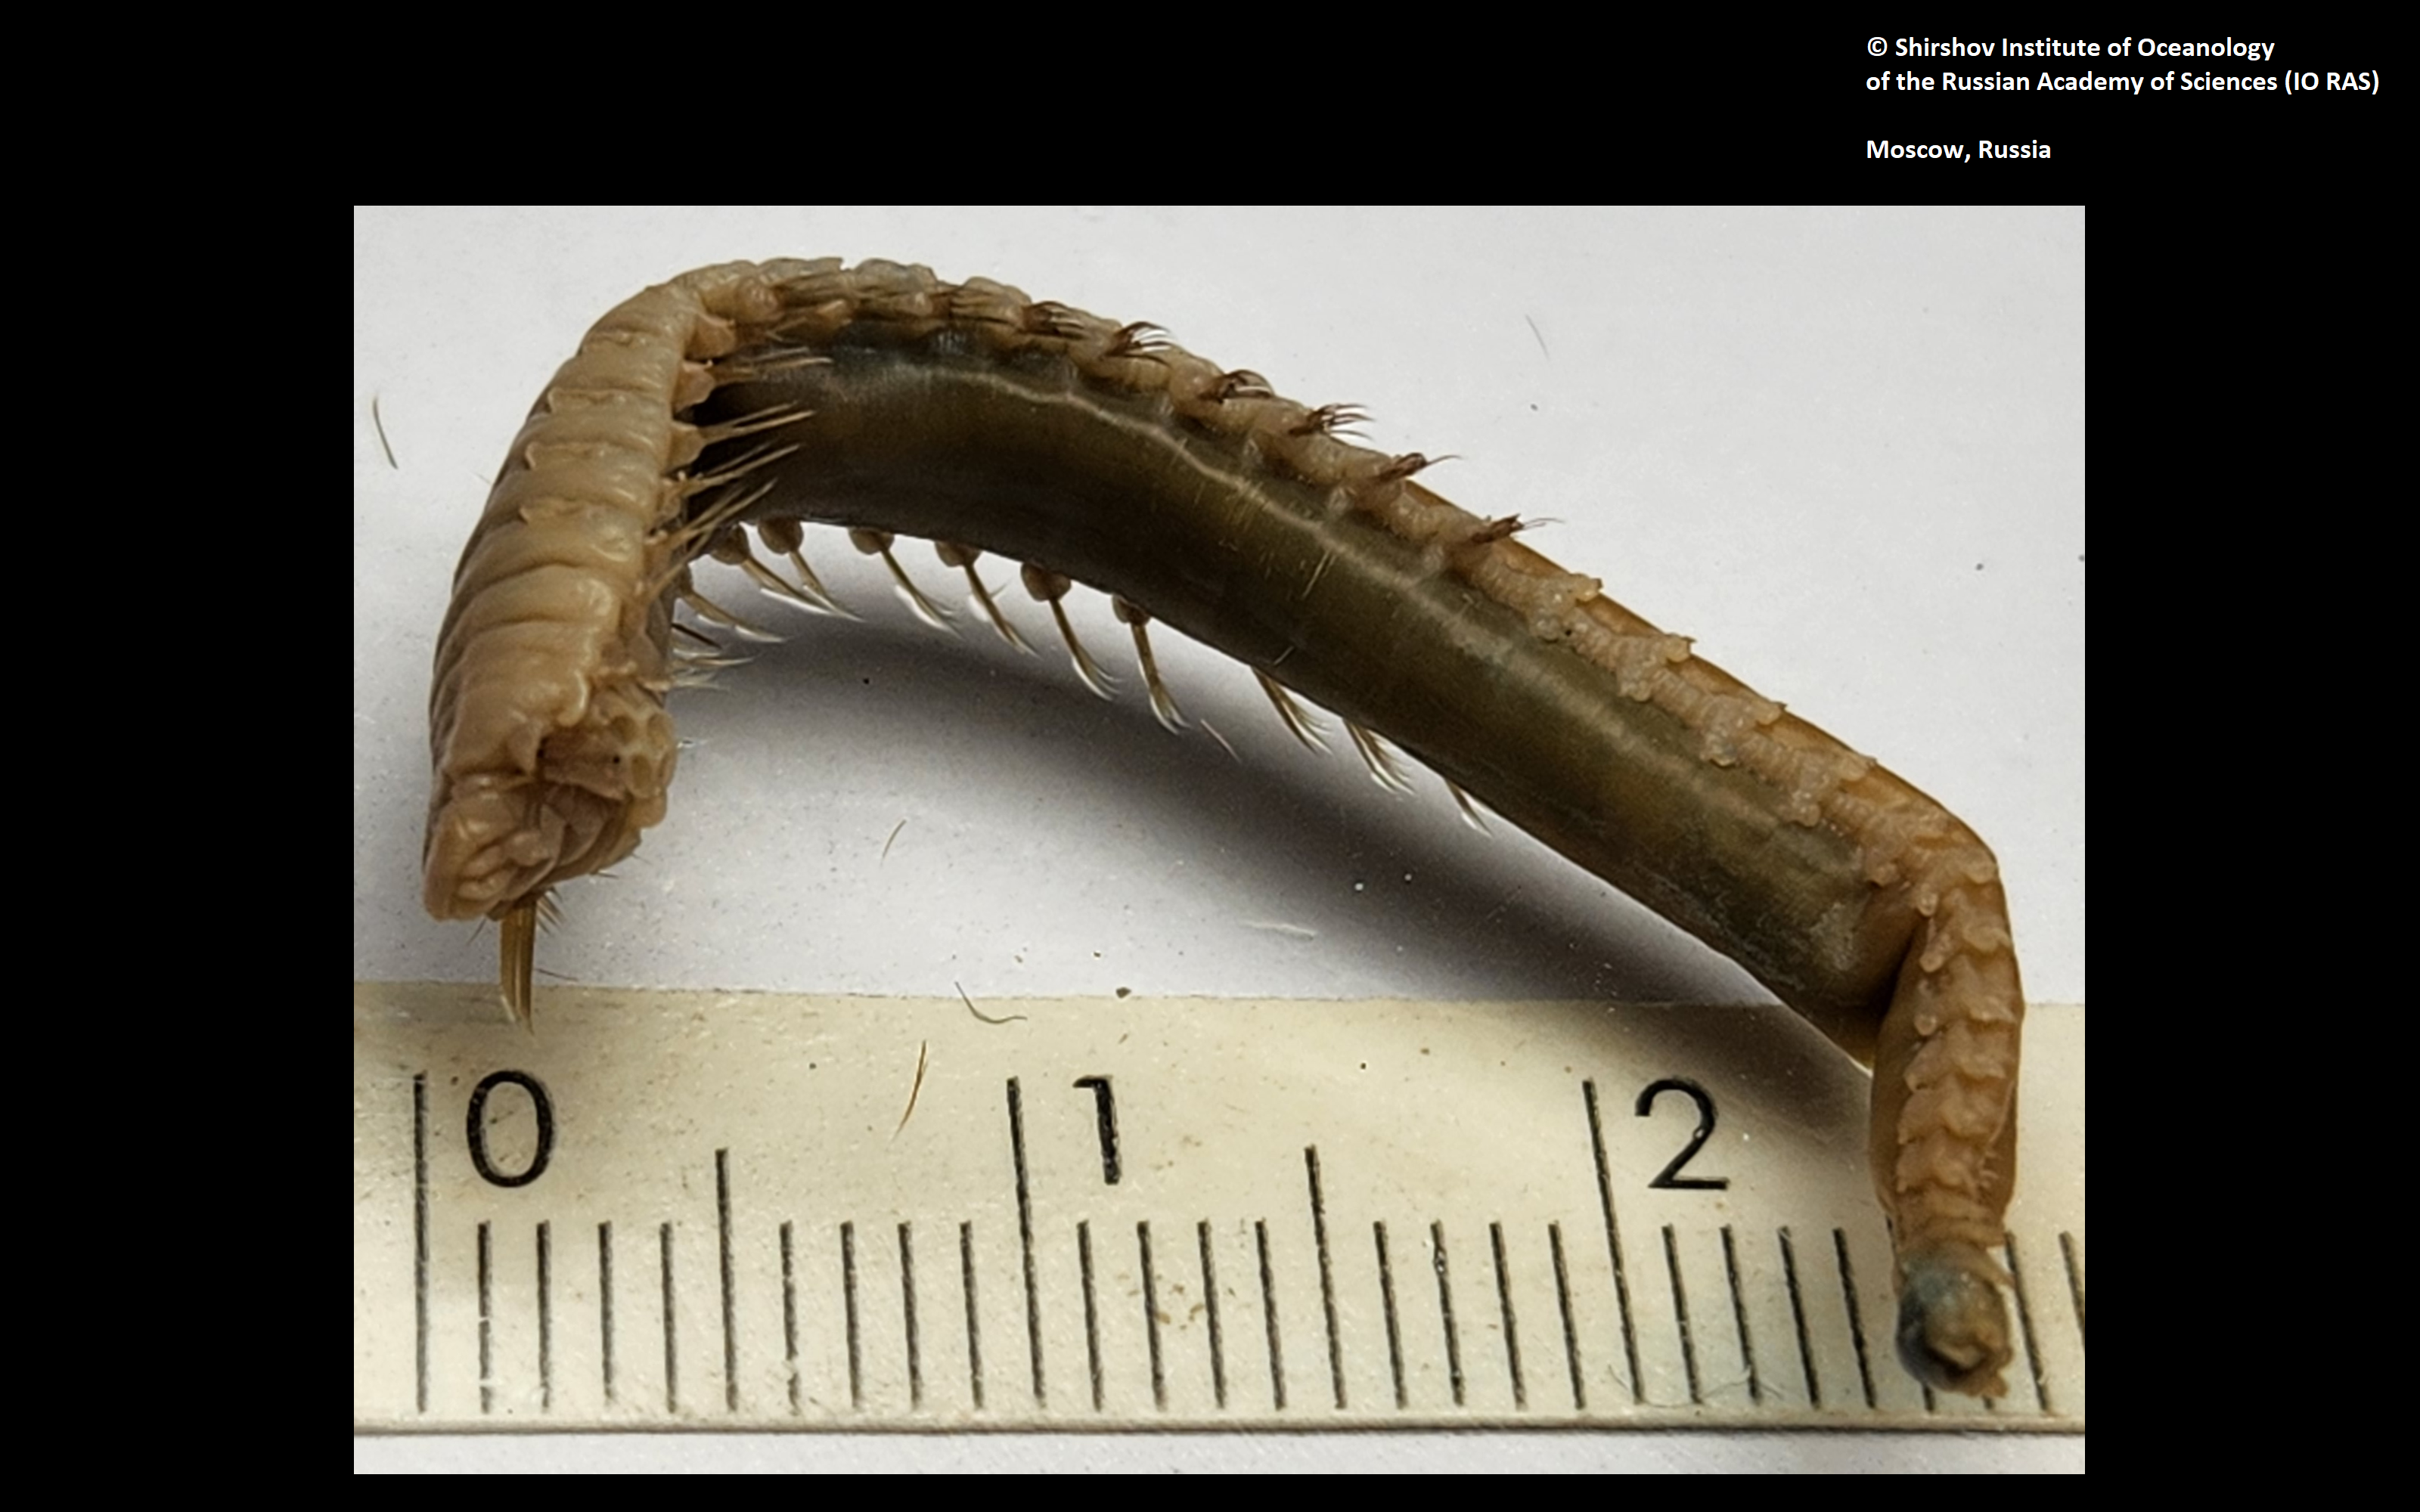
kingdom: Animalia
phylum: Annelida
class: Polychaeta
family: Ampharetidae
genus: Amphicteis
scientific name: Amphicteis nikiti
